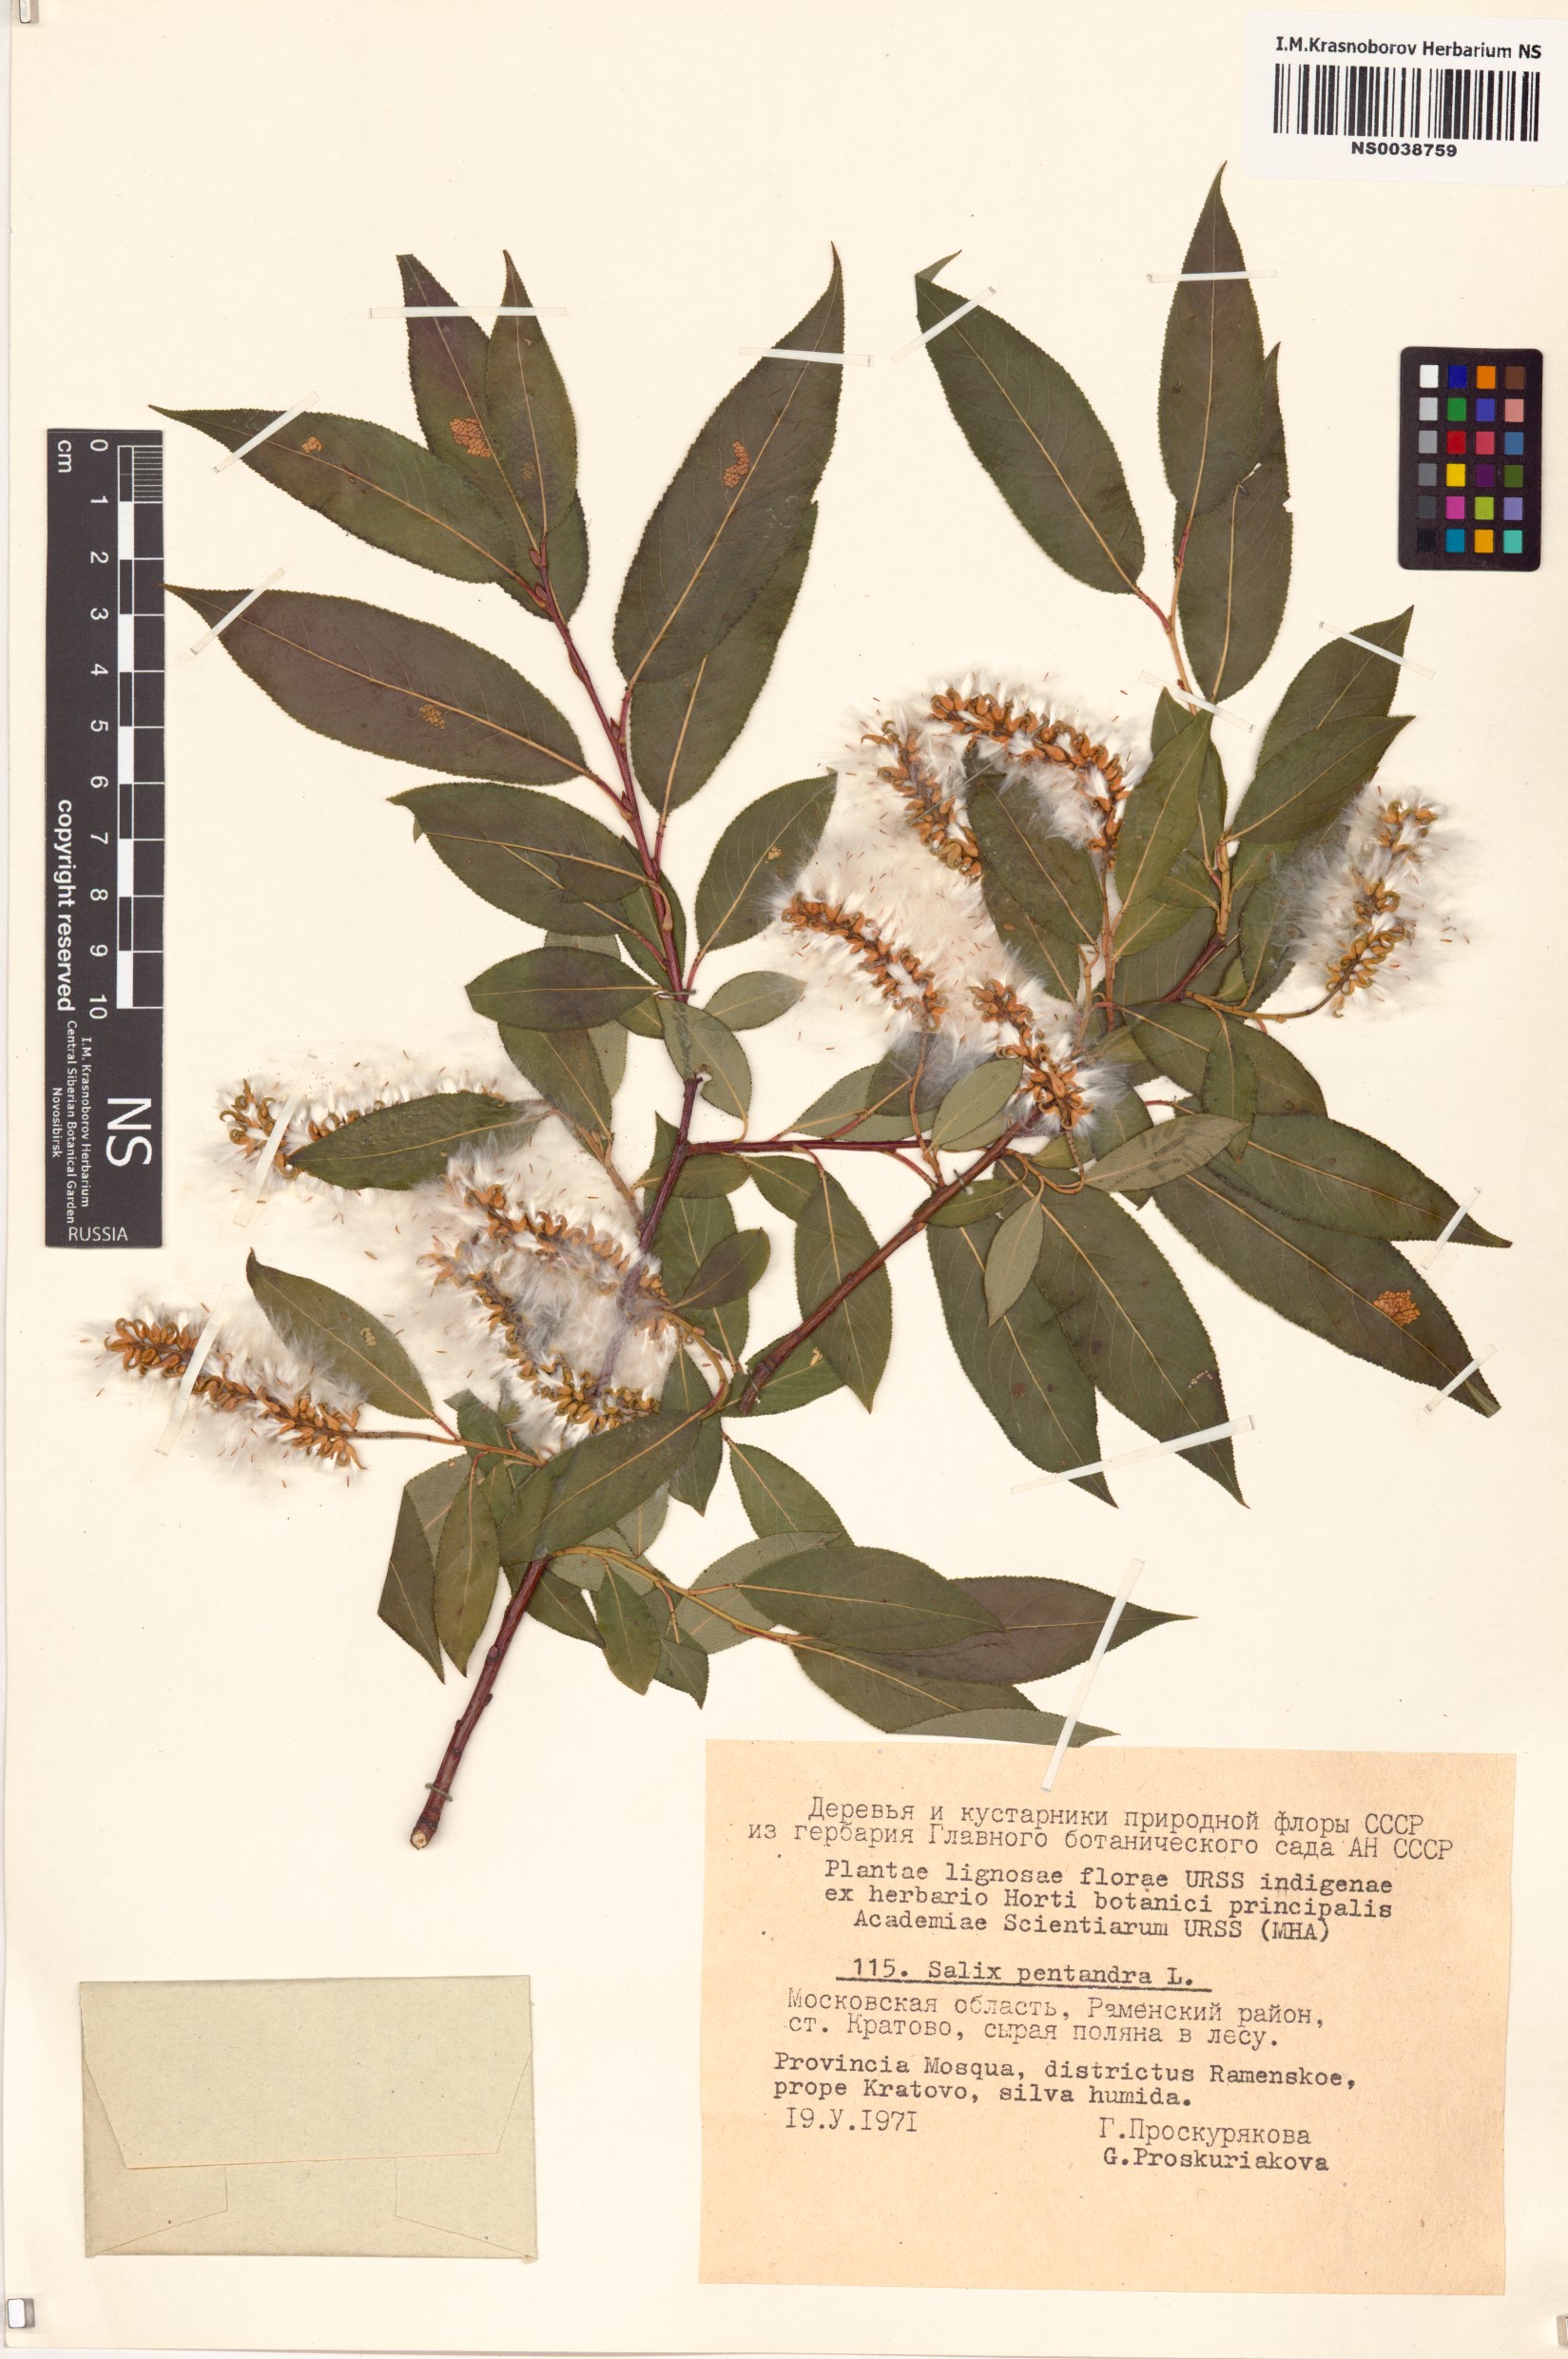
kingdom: Plantae
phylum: Tracheophyta
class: Magnoliopsida
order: Malpighiales
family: Salicaceae
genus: Salix
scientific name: Salix pentandra
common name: Bay willow
